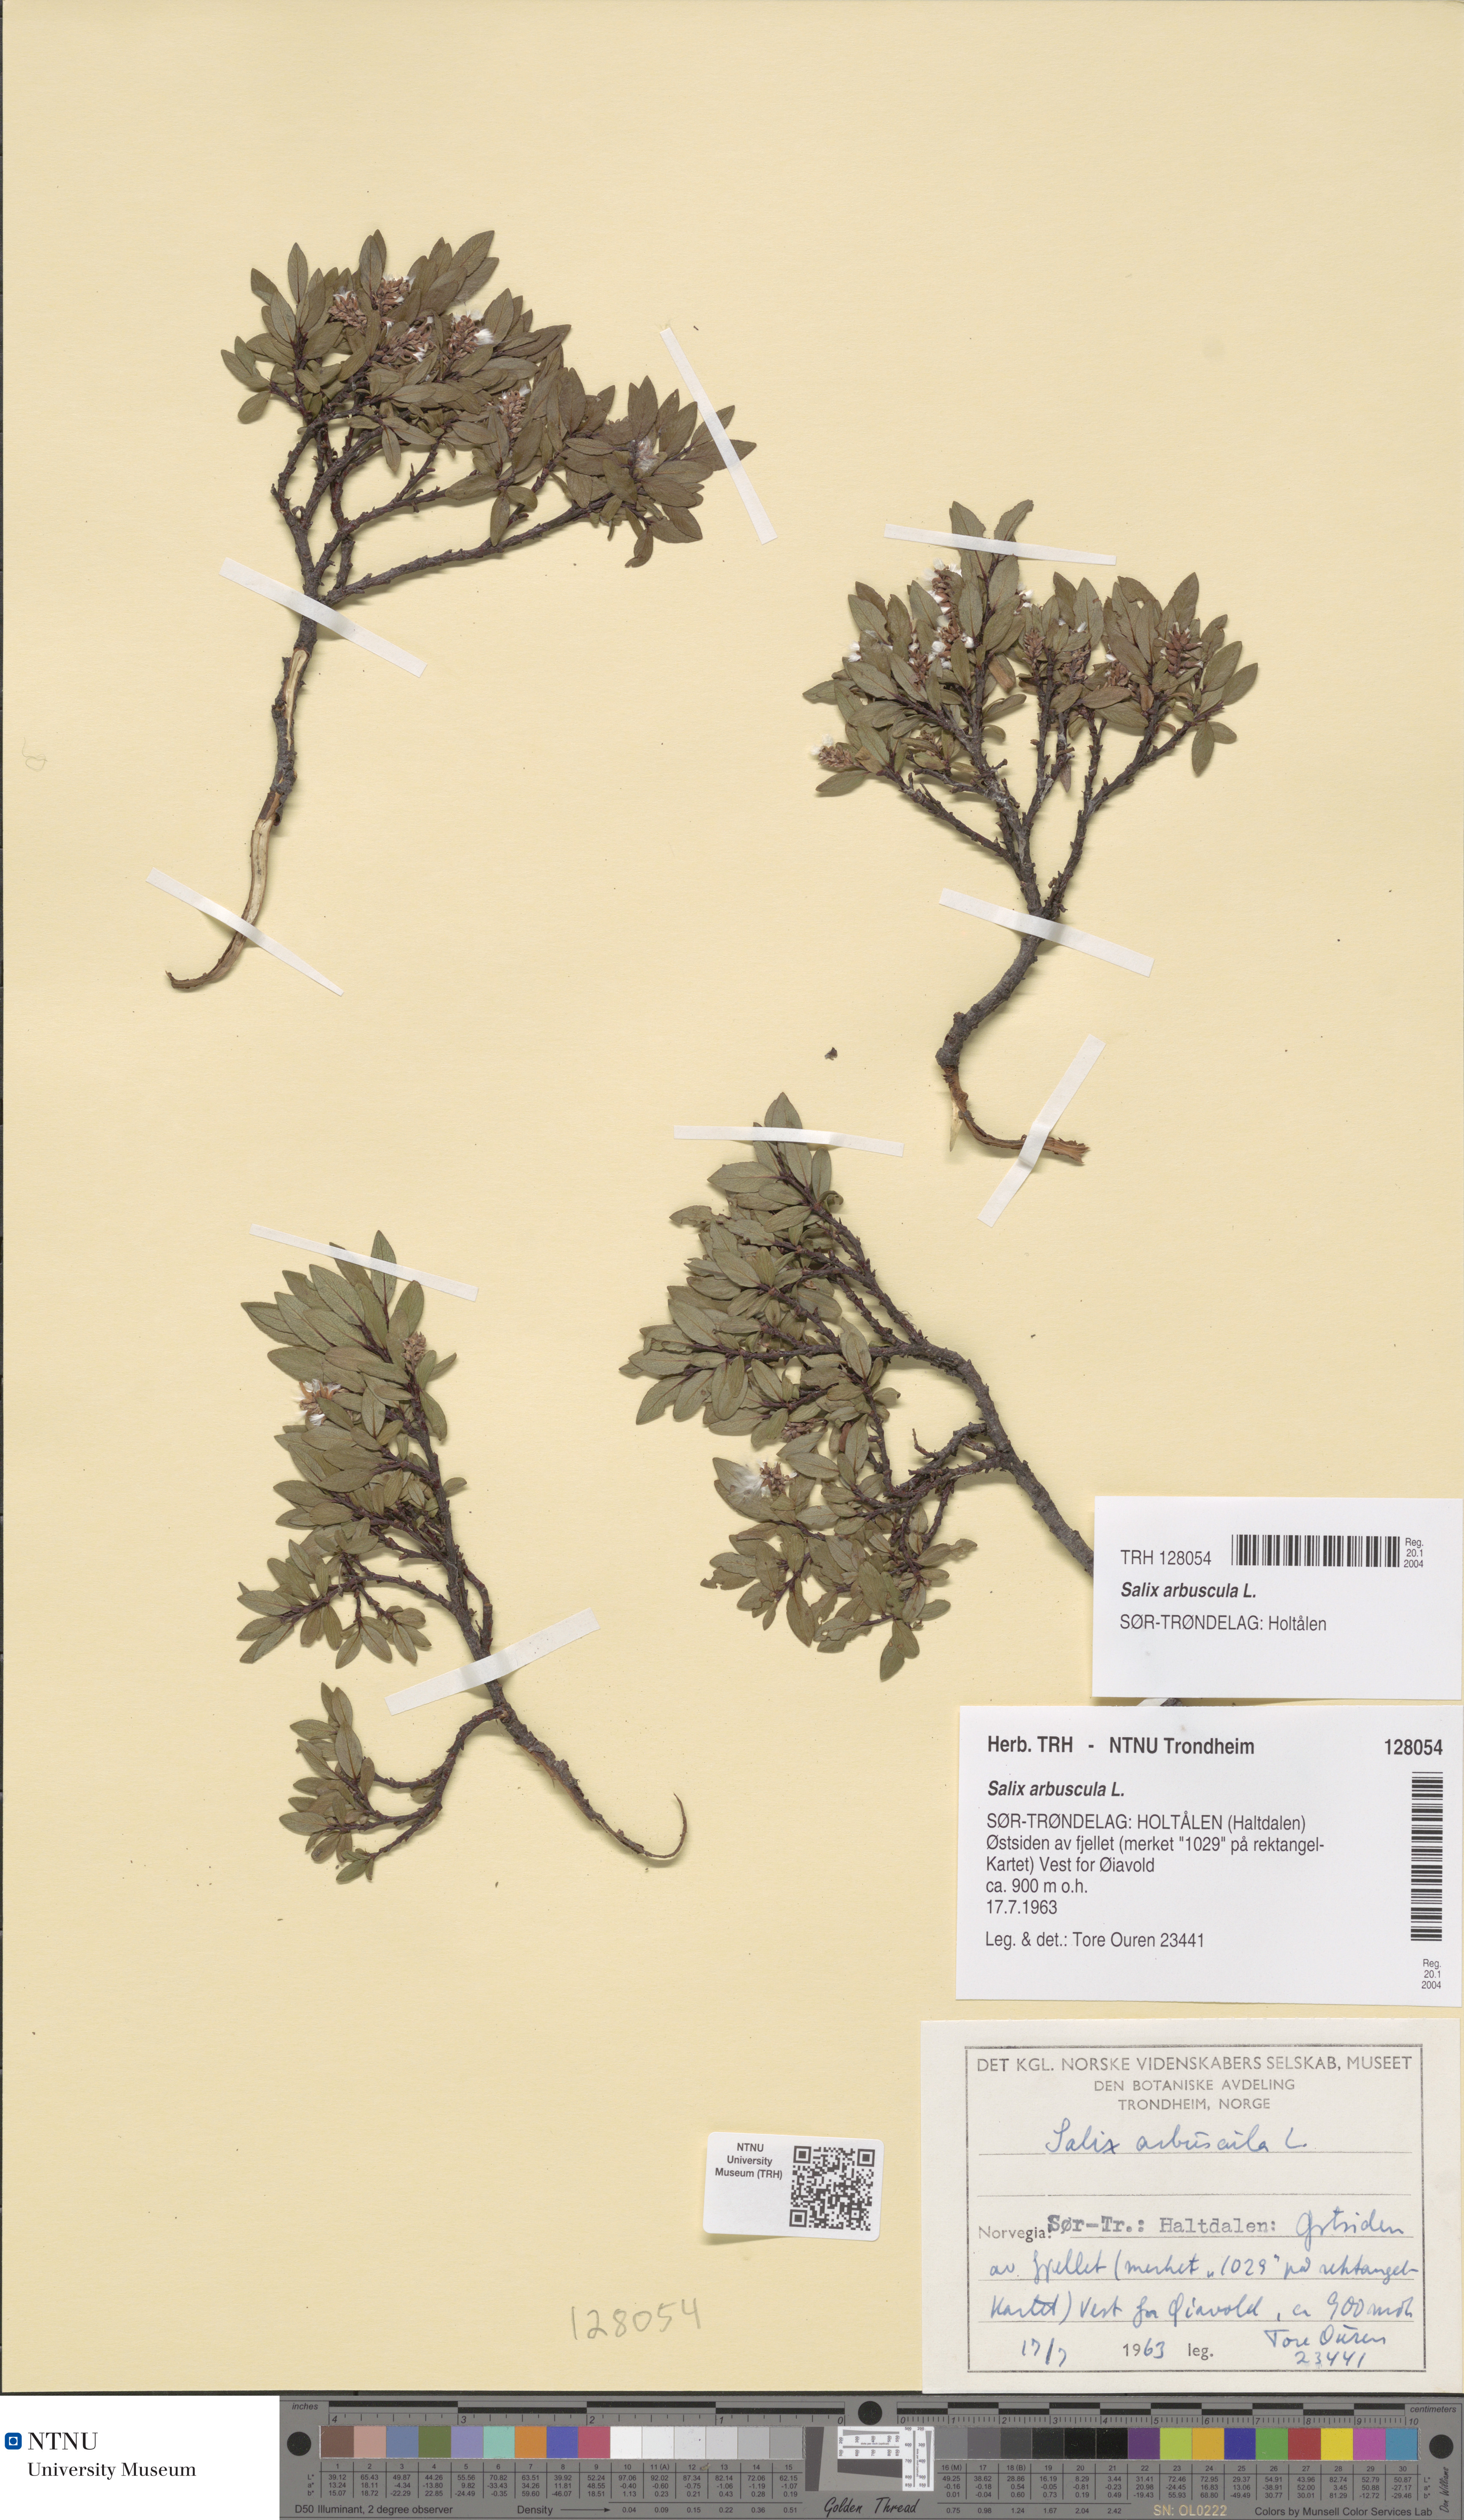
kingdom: Plantae
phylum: Tracheophyta
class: Magnoliopsida
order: Malpighiales
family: Salicaceae
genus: Salix
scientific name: Salix arbuscula
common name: Mountain willow
